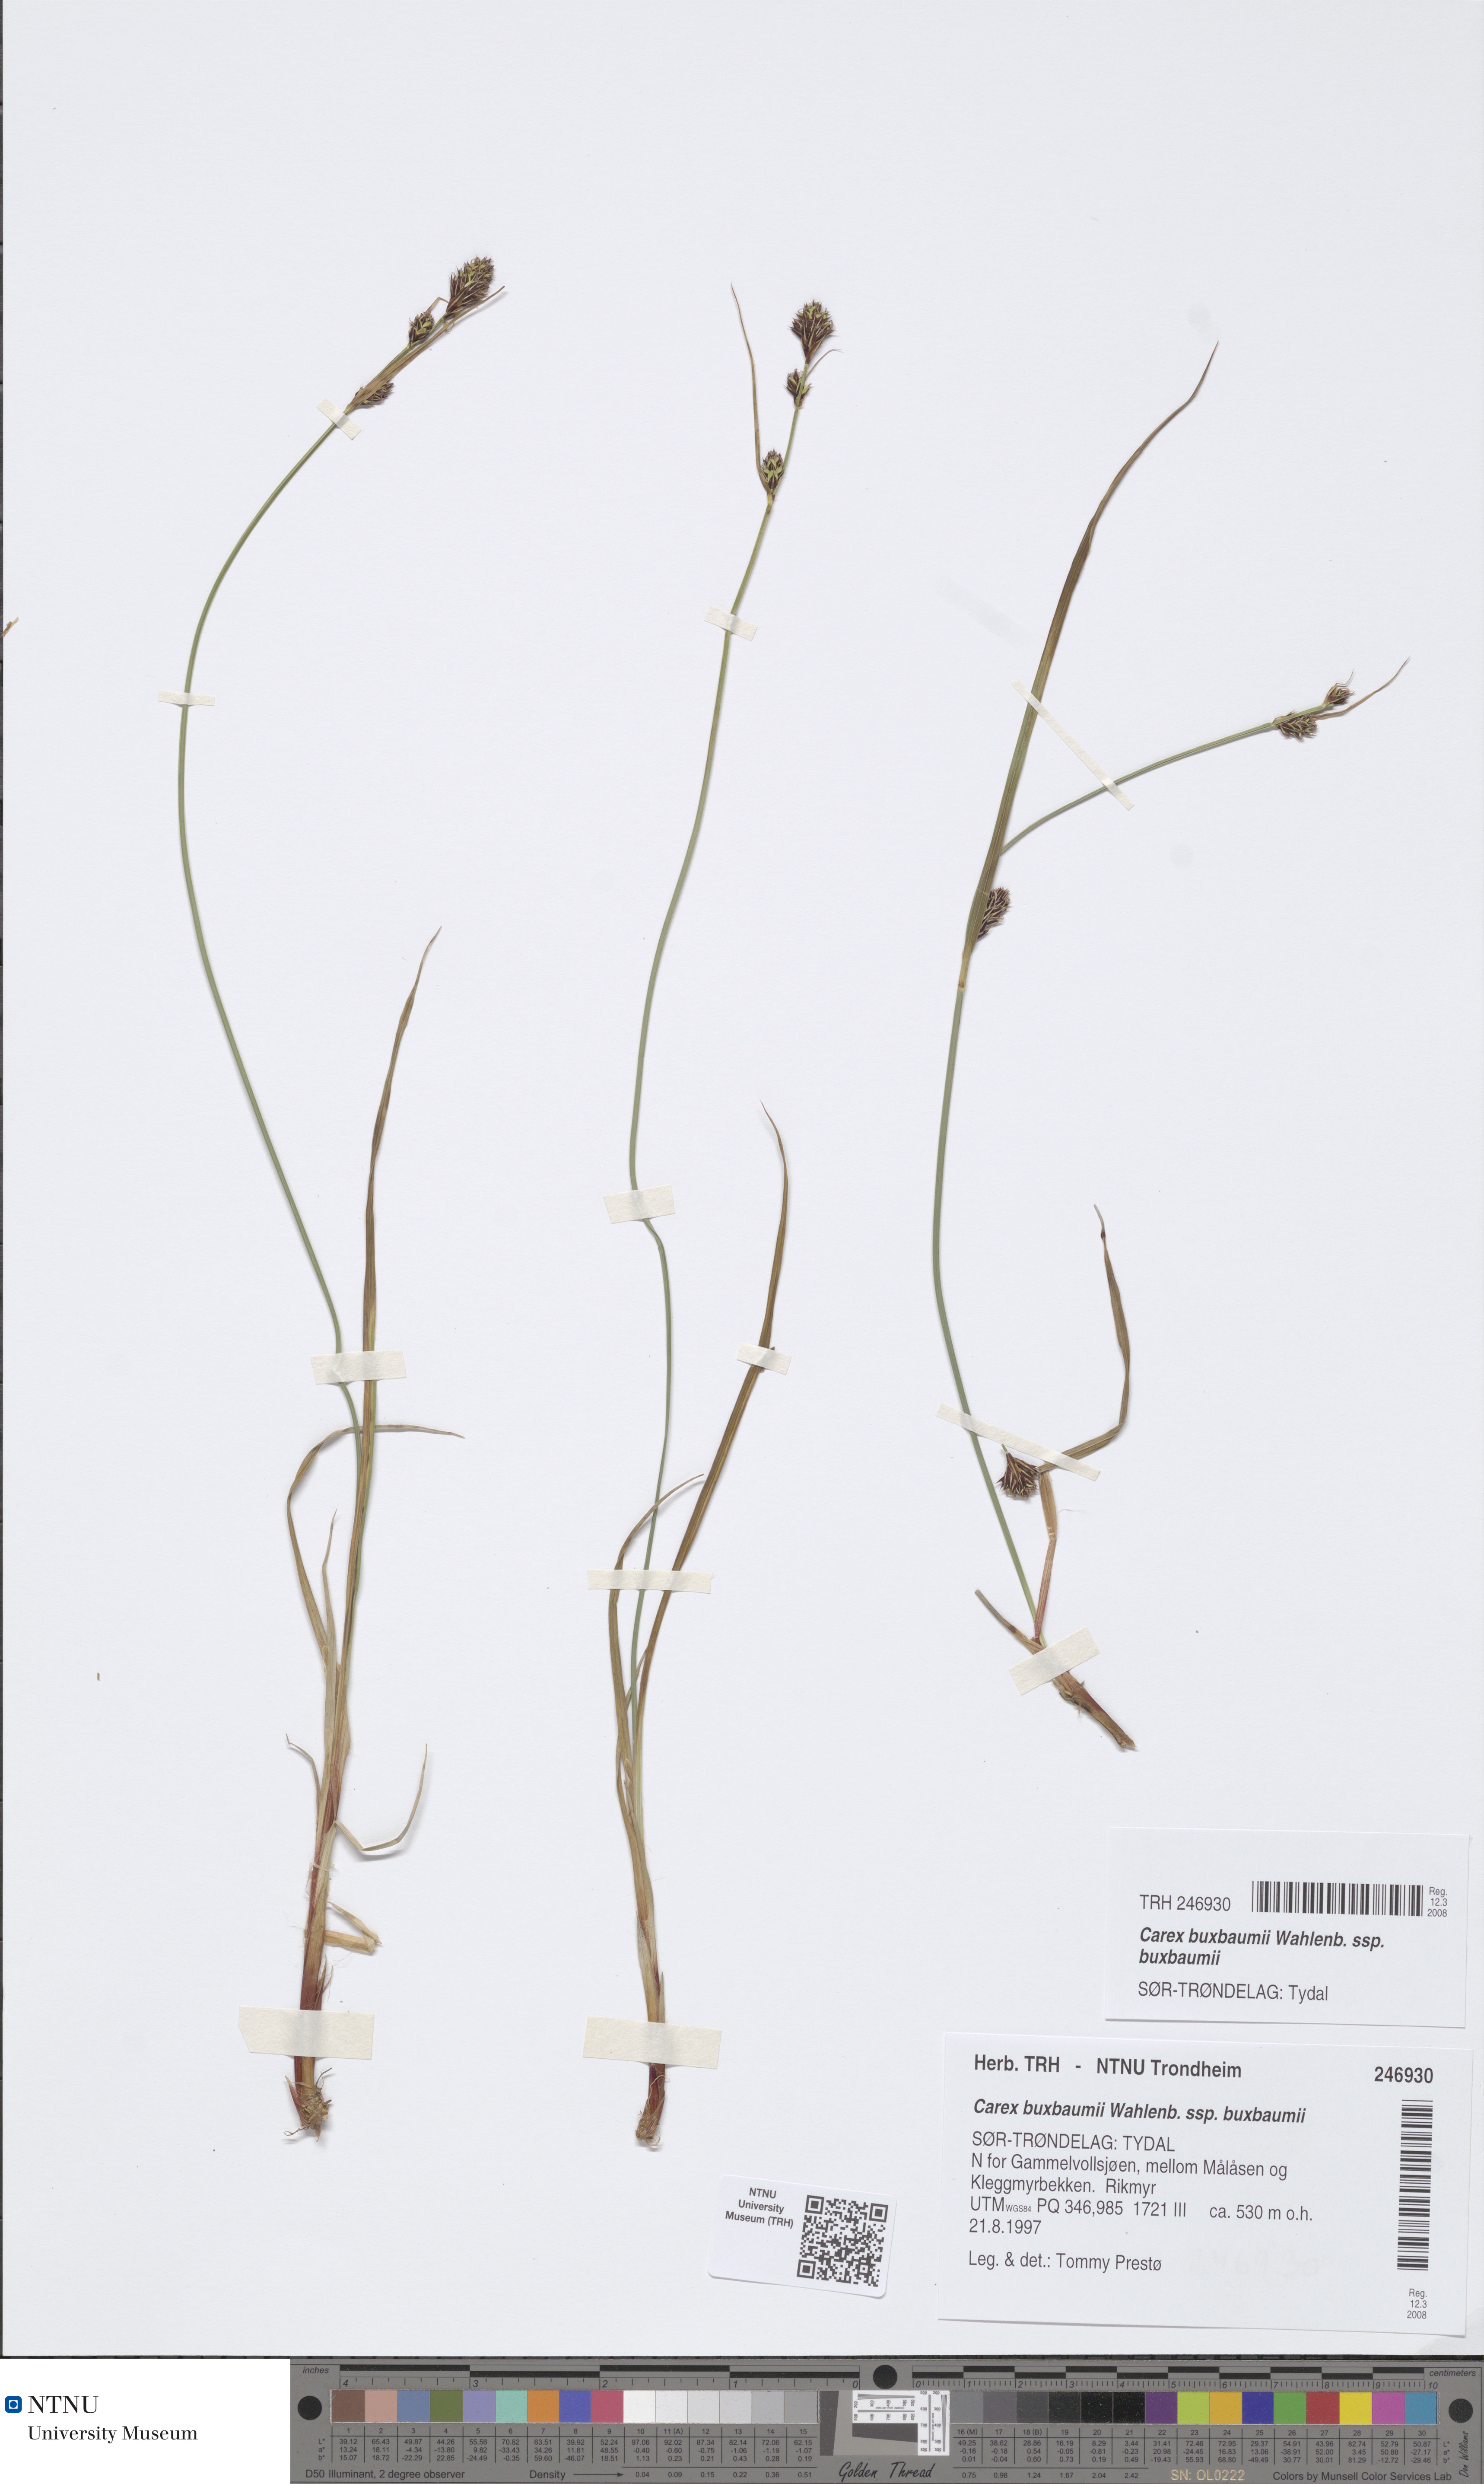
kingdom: Plantae
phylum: Tracheophyta
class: Liliopsida
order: Poales
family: Cyperaceae
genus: Carex
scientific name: Carex buxbaumii
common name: Club sedge
